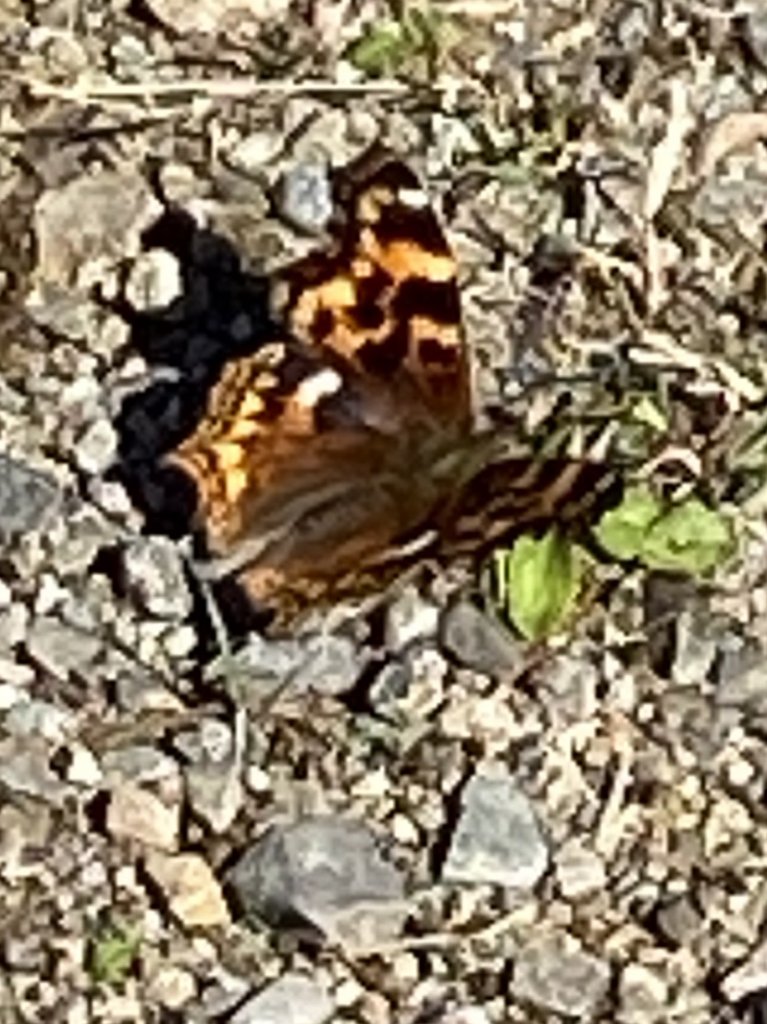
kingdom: Animalia
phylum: Arthropoda
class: Insecta
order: Lepidoptera
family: Nymphalidae
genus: Polygonia
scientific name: Polygonia vaualbum
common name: Compton Tortoiseshell
